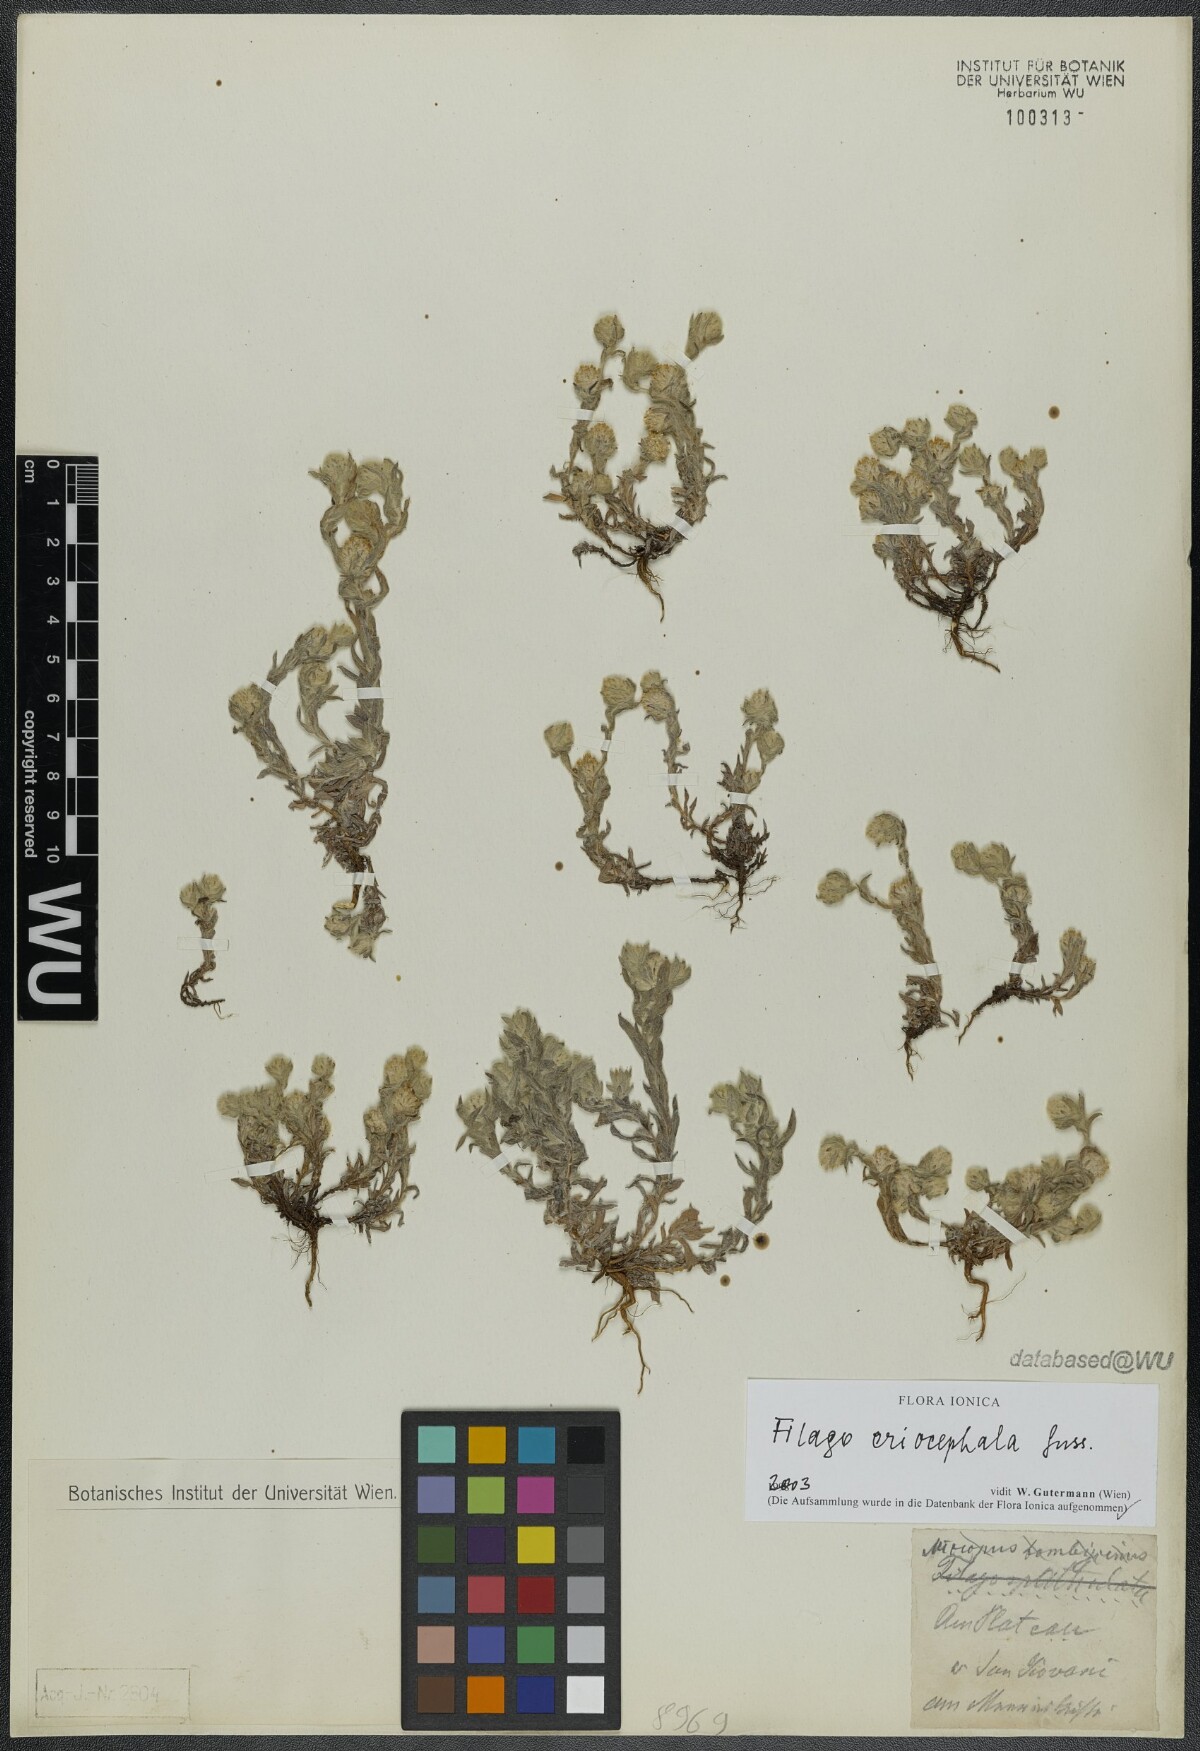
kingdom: Plantae
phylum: Tracheophyta
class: Magnoliopsida
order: Asterales
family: Asteraceae
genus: Filago
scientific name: Filago eriocephala
